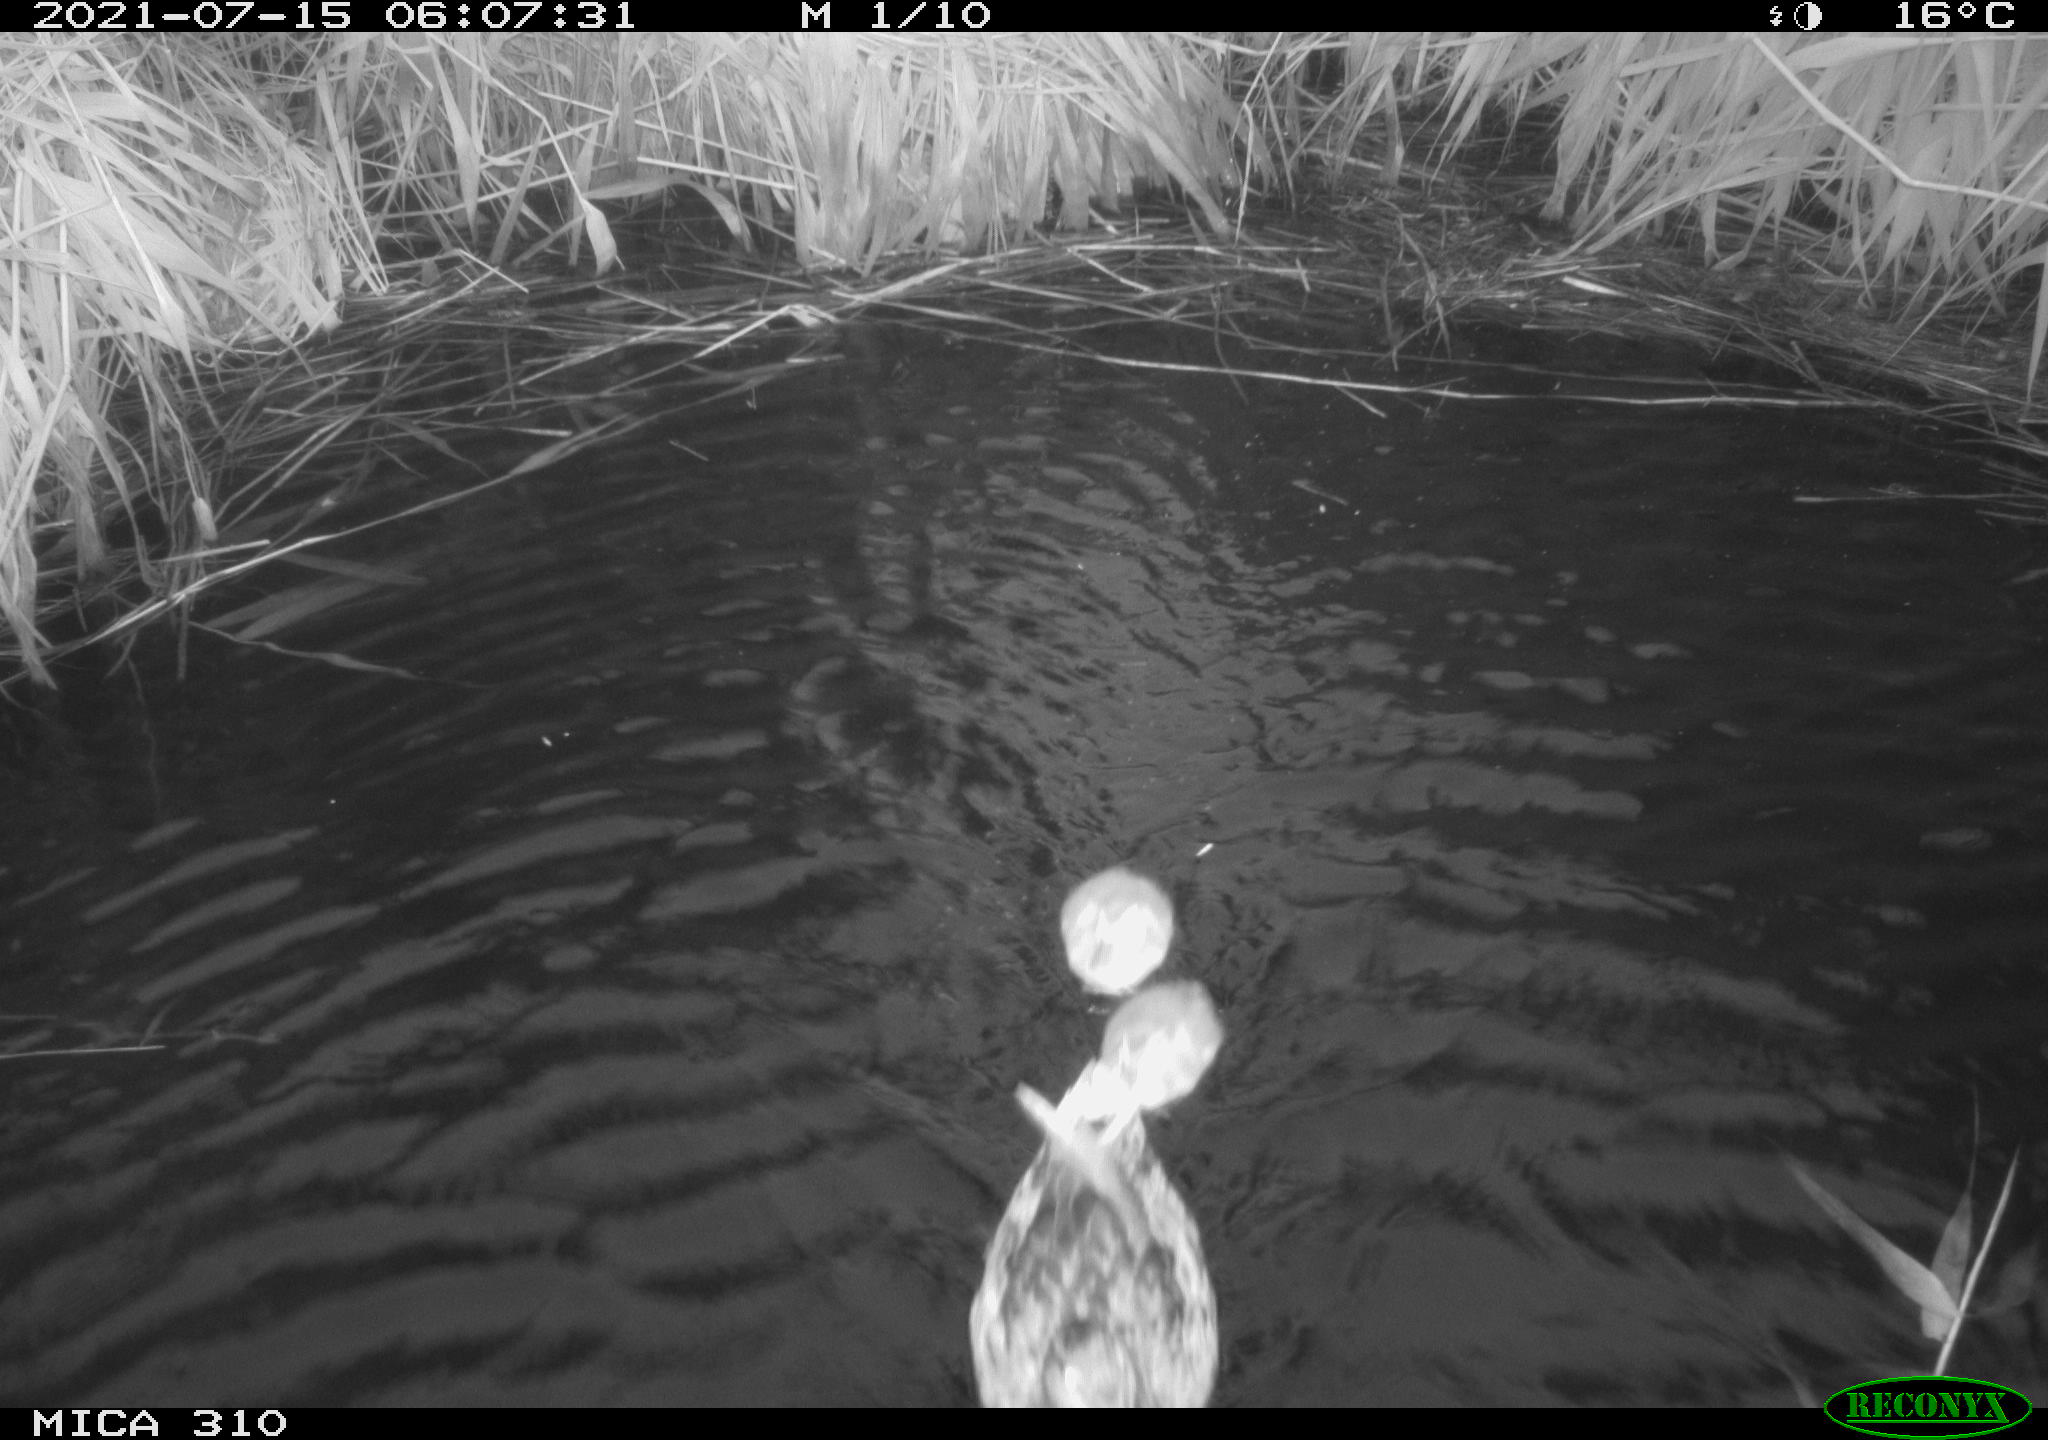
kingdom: Animalia
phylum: Chordata
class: Aves
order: Anseriformes
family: Anatidae
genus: Anas
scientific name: Anas platyrhynchos
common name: Mallard
